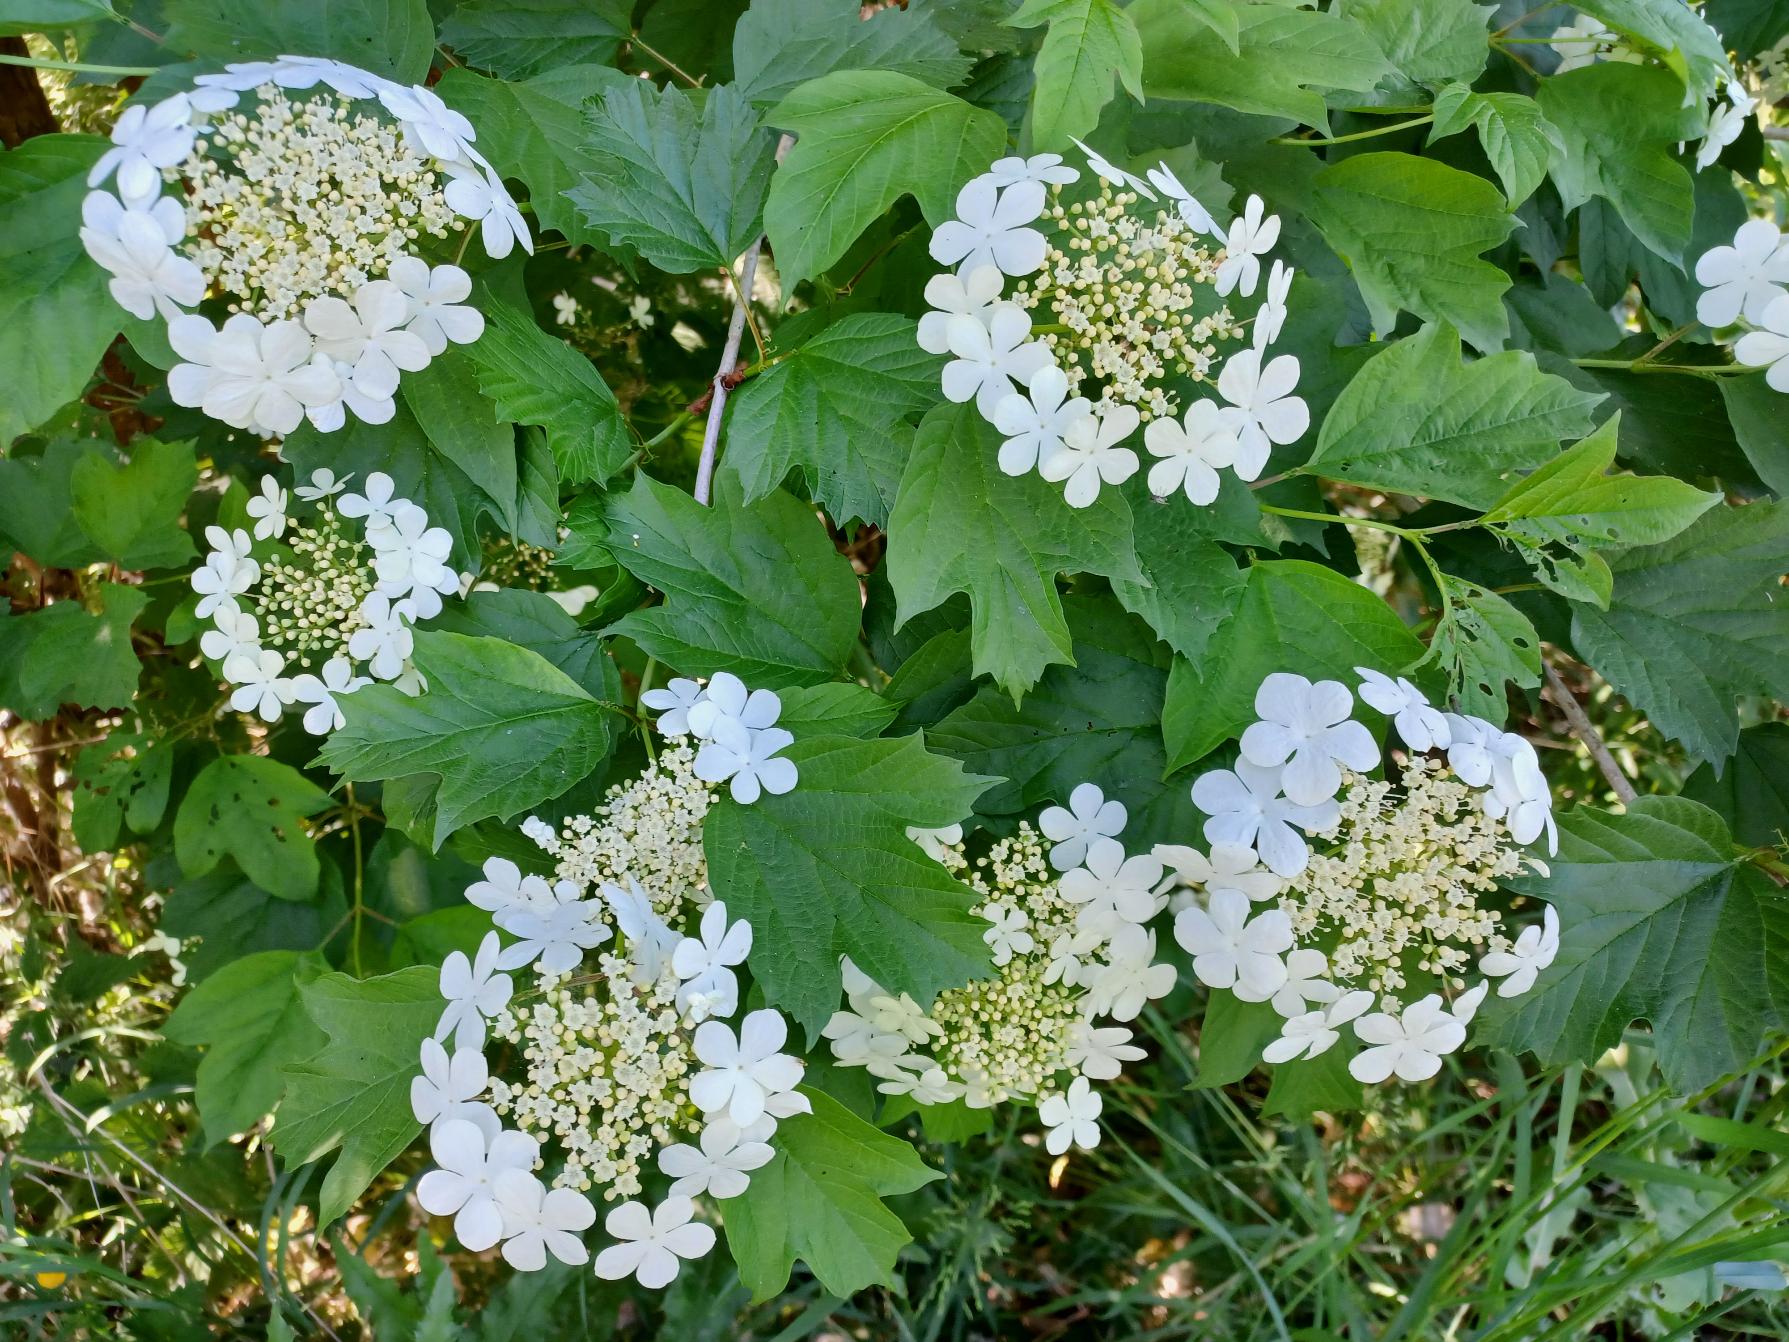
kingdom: Plantae
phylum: Tracheophyta
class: Magnoliopsida
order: Dipsacales
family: Viburnaceae
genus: Viburnum
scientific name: Viburnum opulus
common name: Kvalkved
